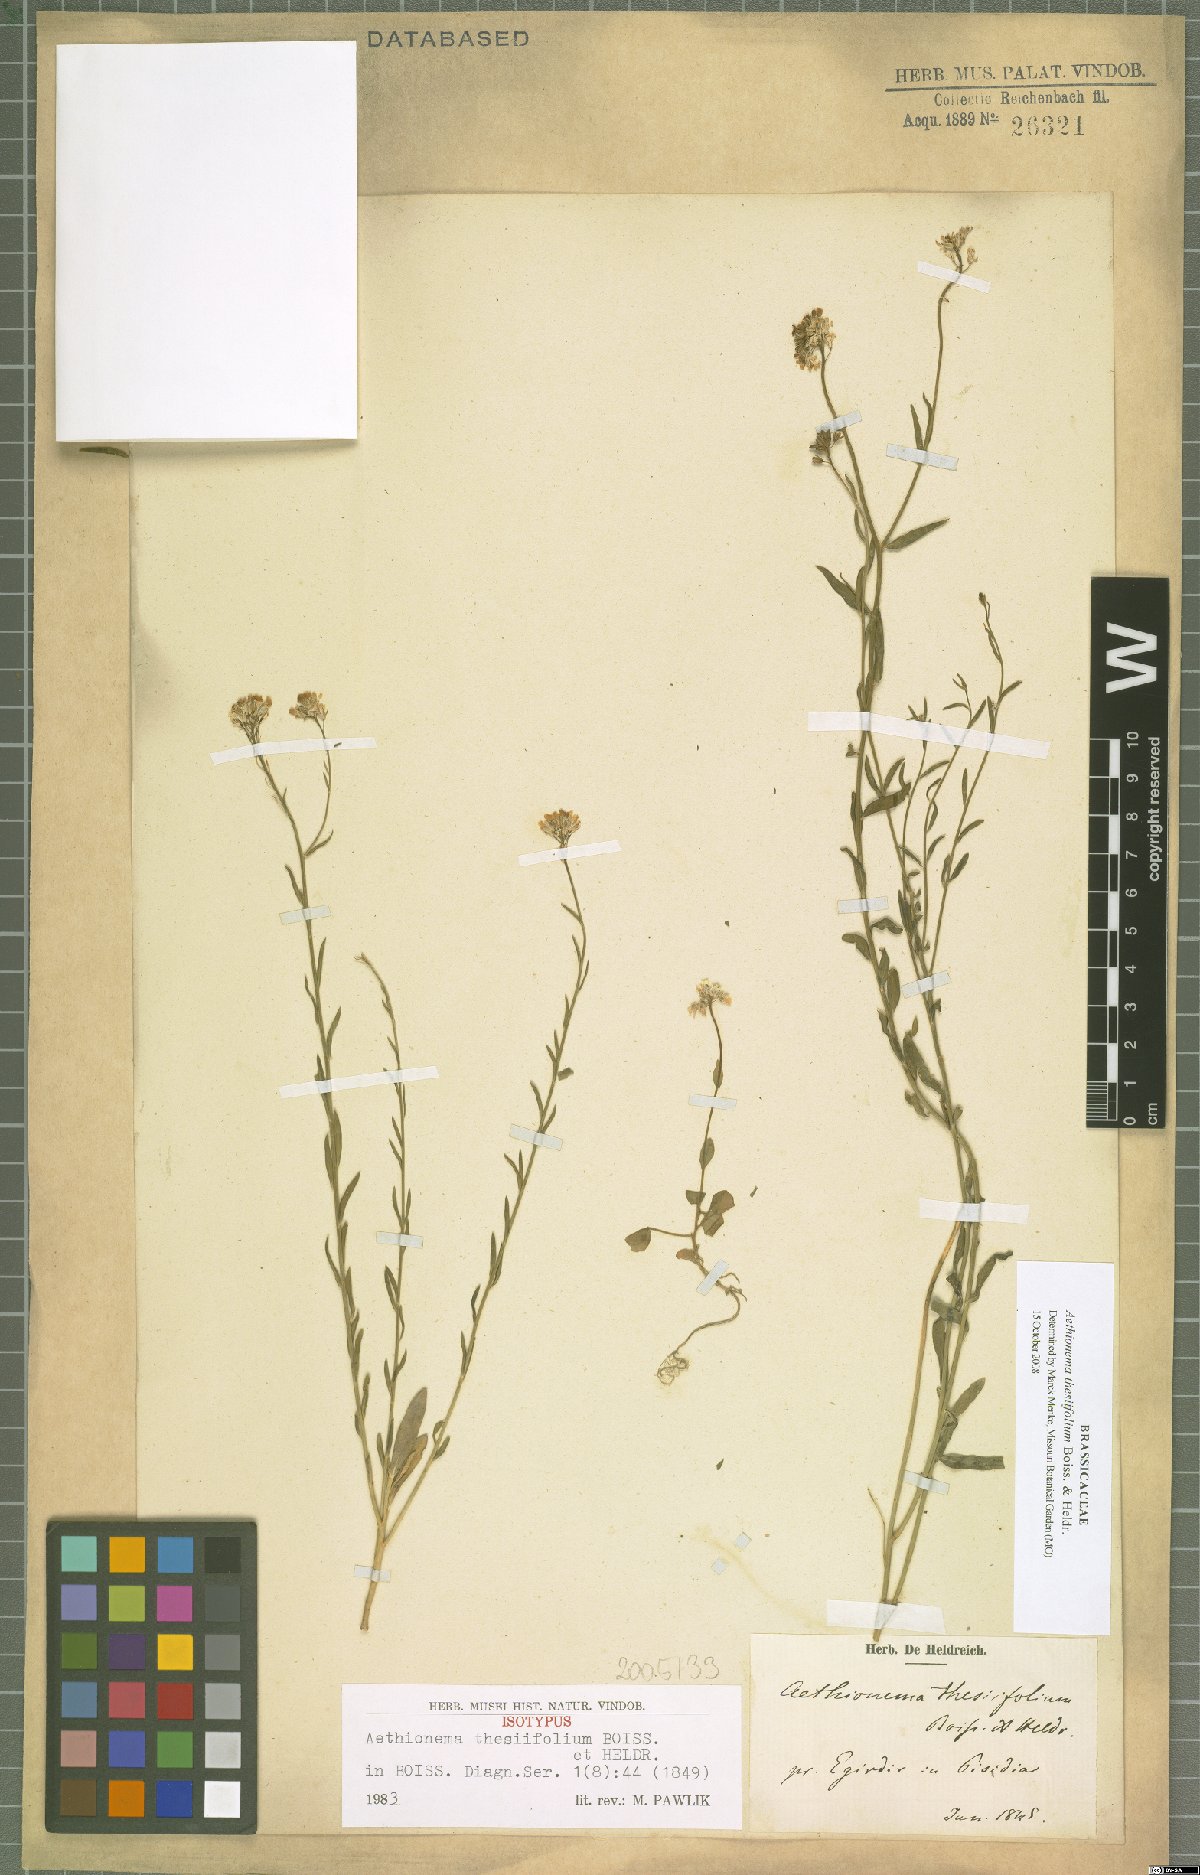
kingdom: Plantae
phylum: Tracheophyta
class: Magnoliopsida
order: Brassicales
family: Brassicaceae
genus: Aethionema
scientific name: Aethionema thesiifolium
